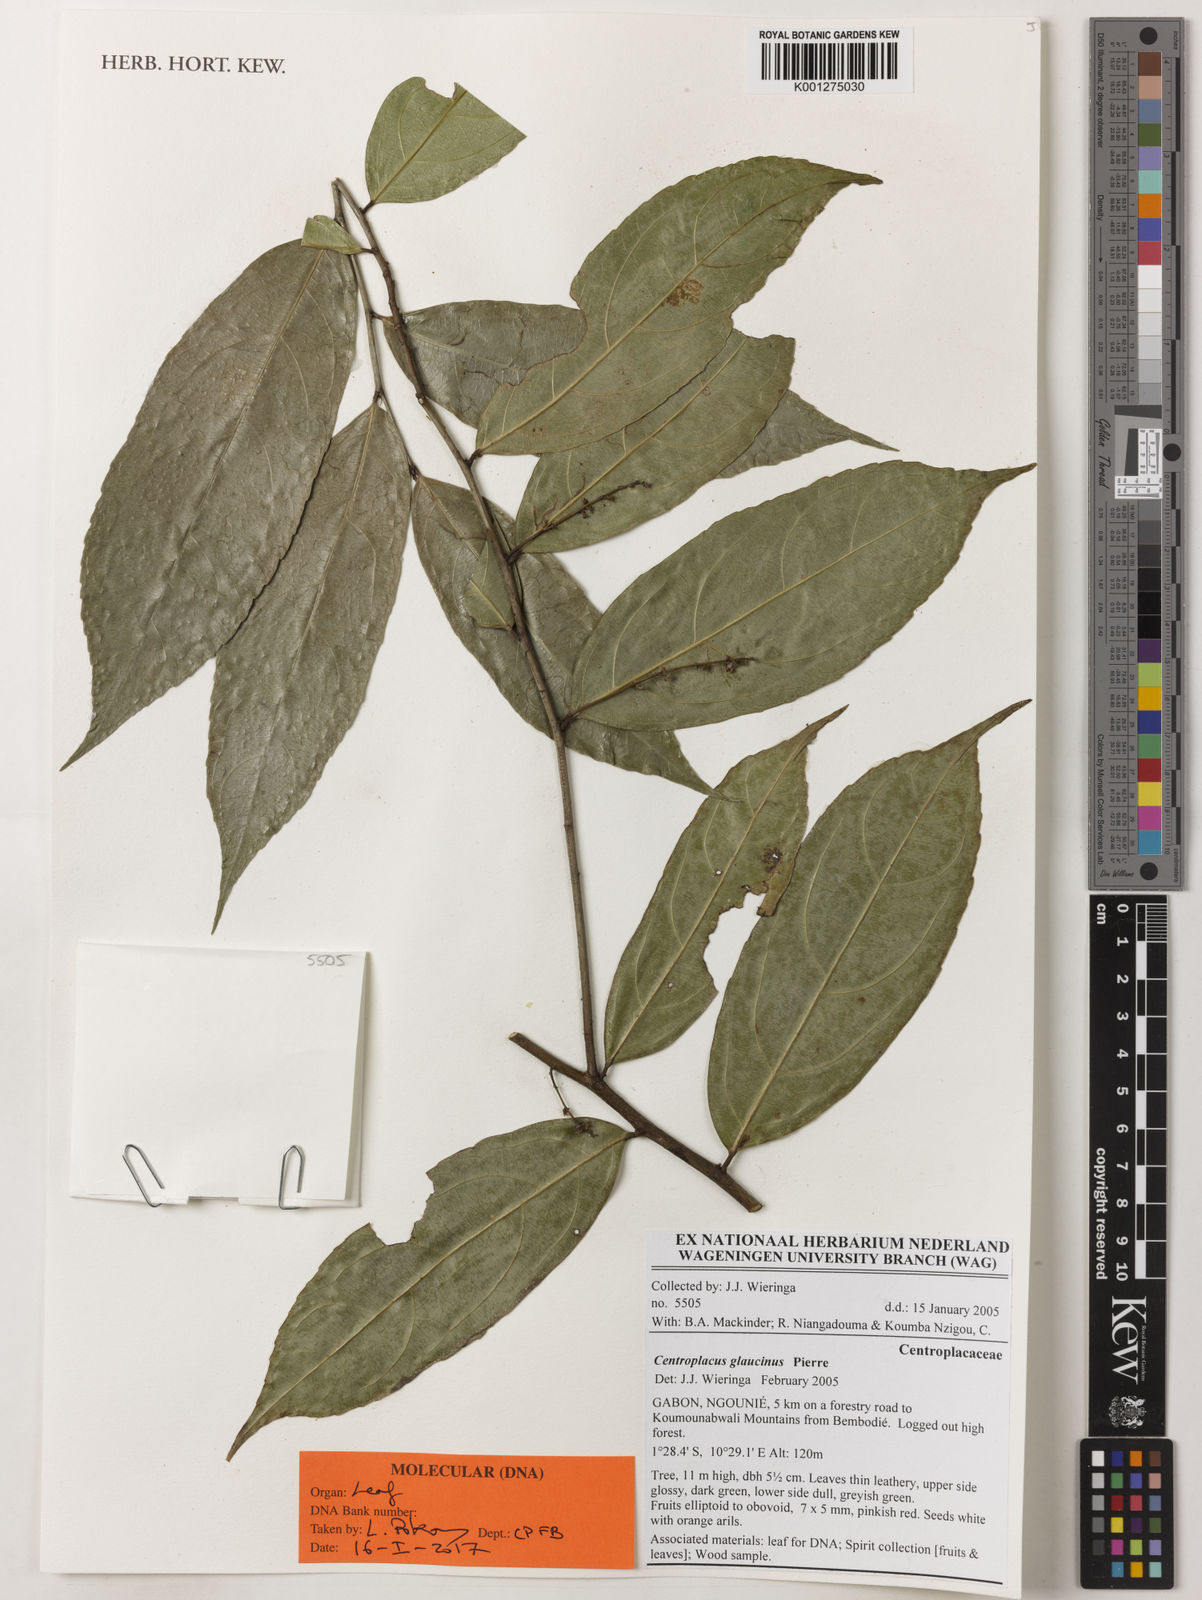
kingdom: Plantae
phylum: Tracheophyta
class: Magnoliopsida
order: Malpighiales
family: Centroplacaceae
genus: Centroplacus
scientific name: Centroplacus glaucinus
